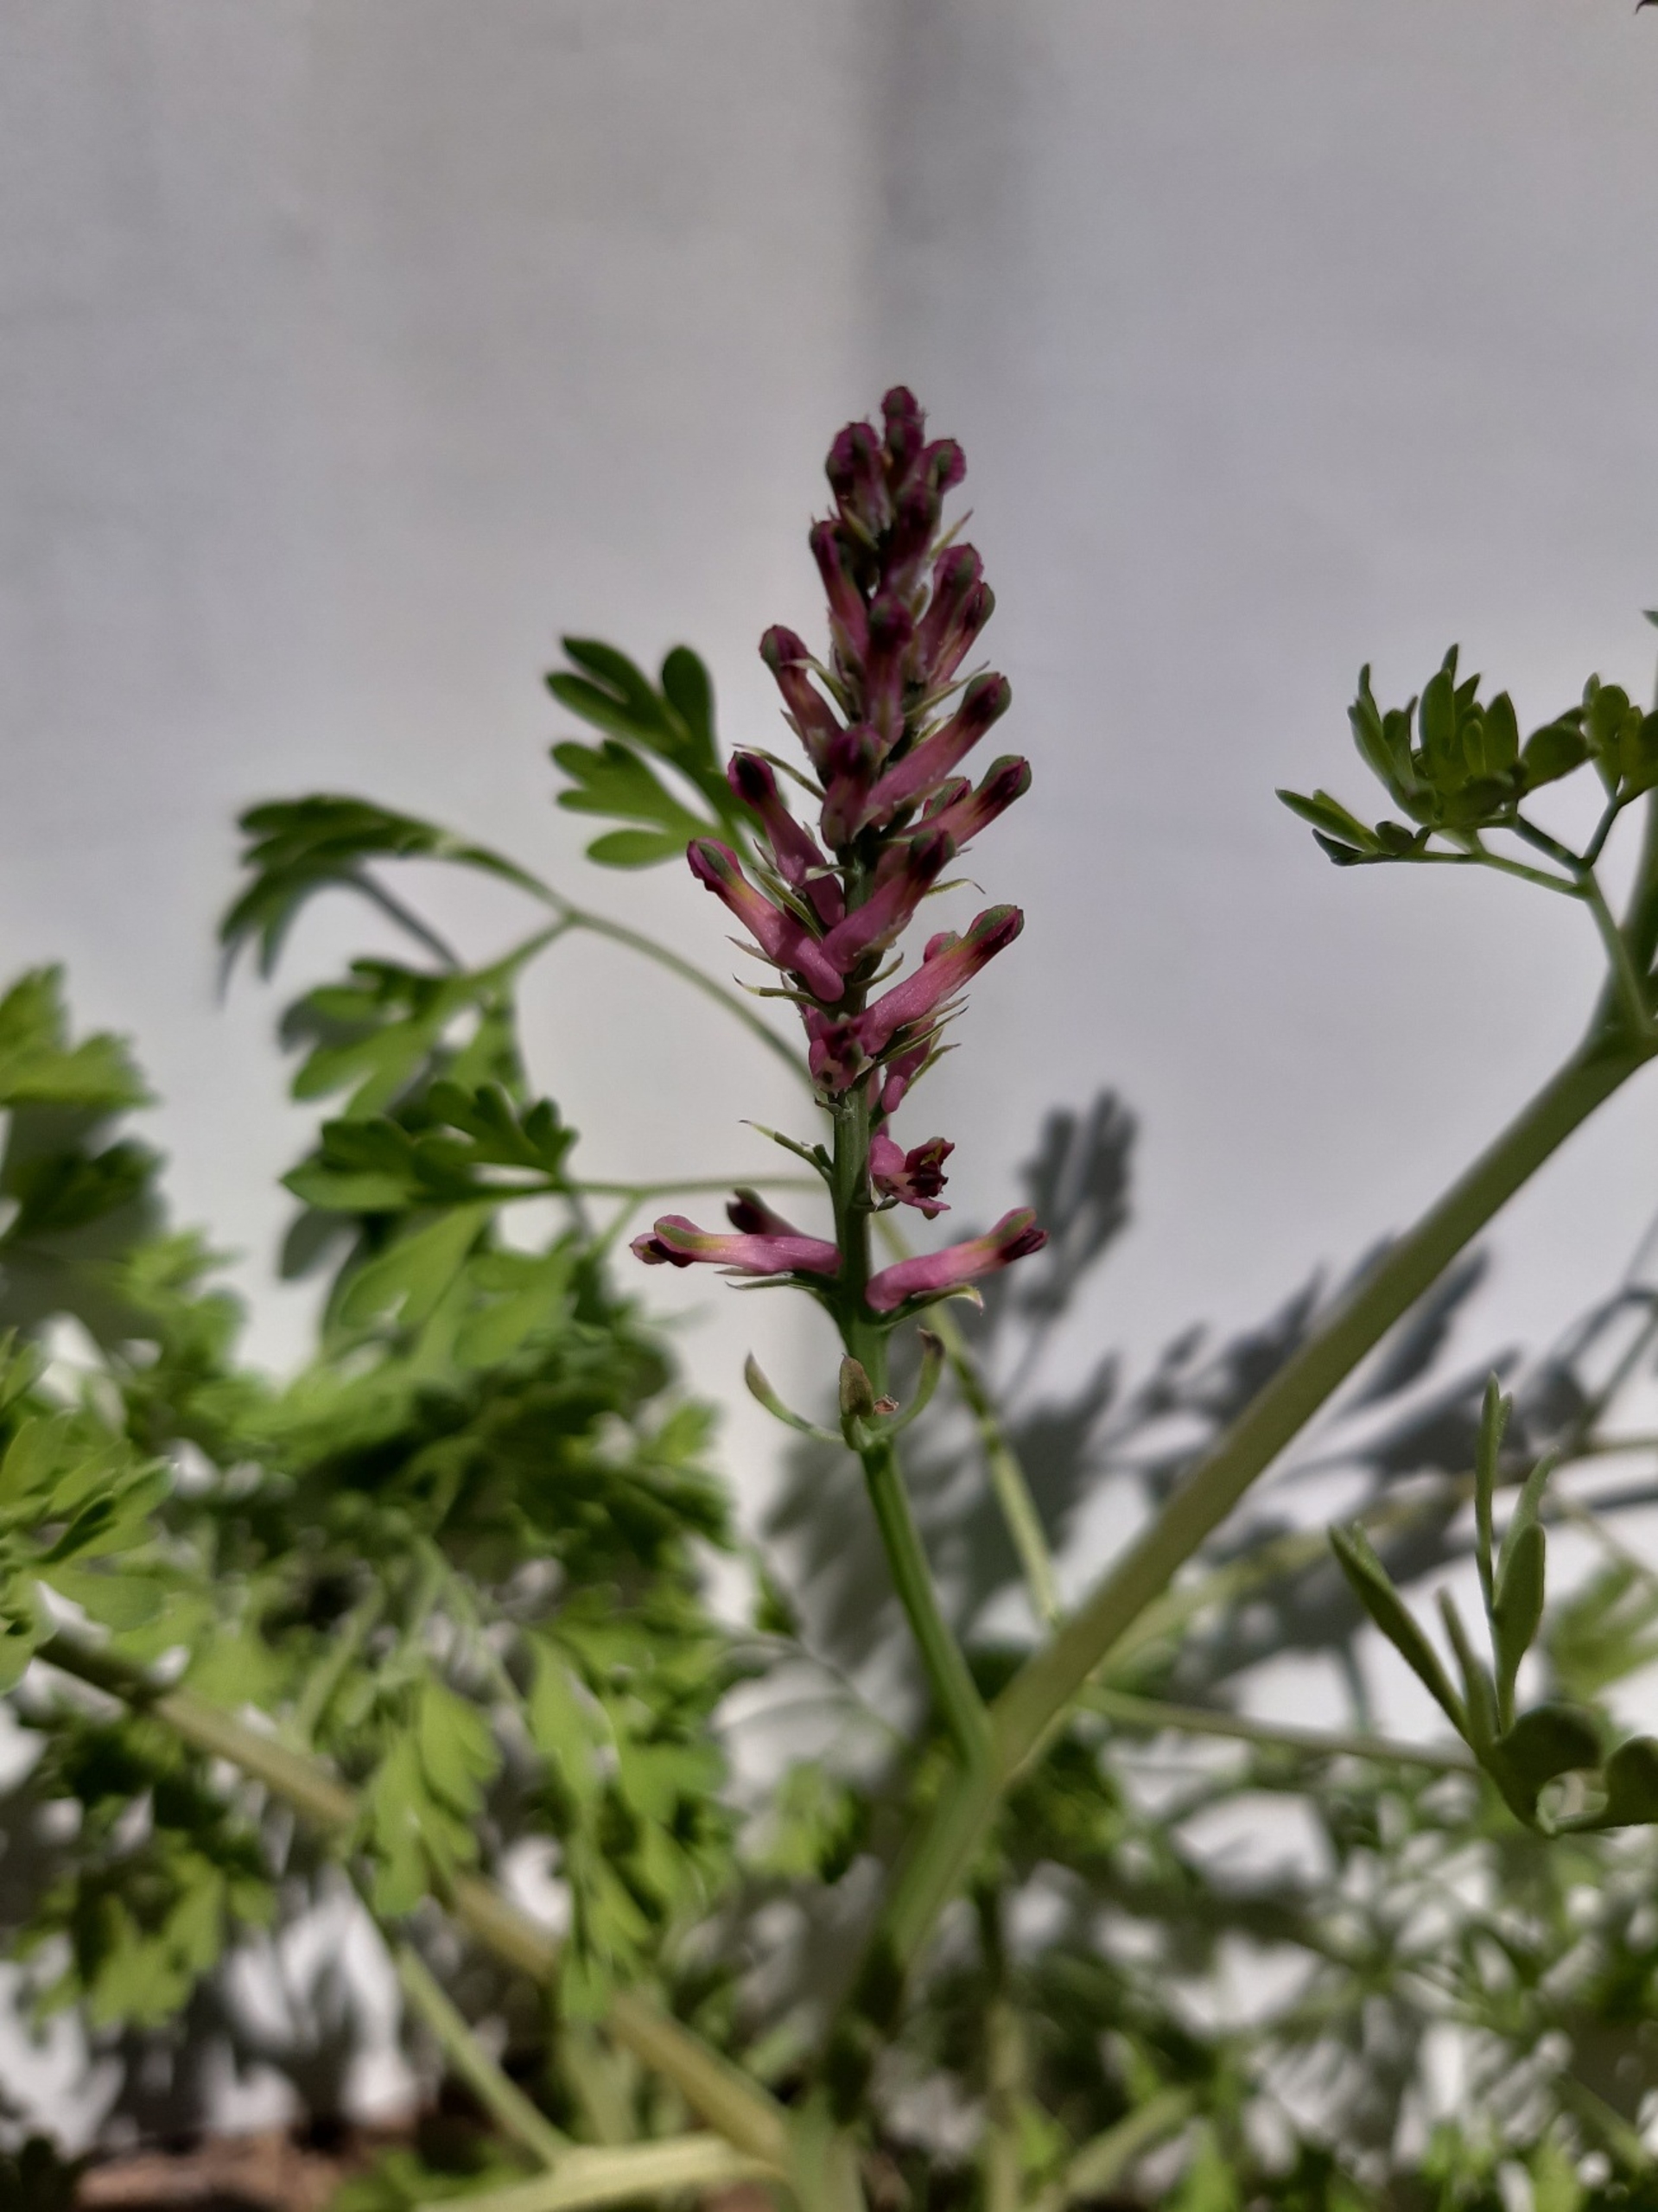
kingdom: Plantae
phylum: Tracheophyta
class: Magnoliopsida
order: Ranunculales
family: Papaveraceae
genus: Fumaria
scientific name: Fumaria officinalis
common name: Læge-jordrøg
